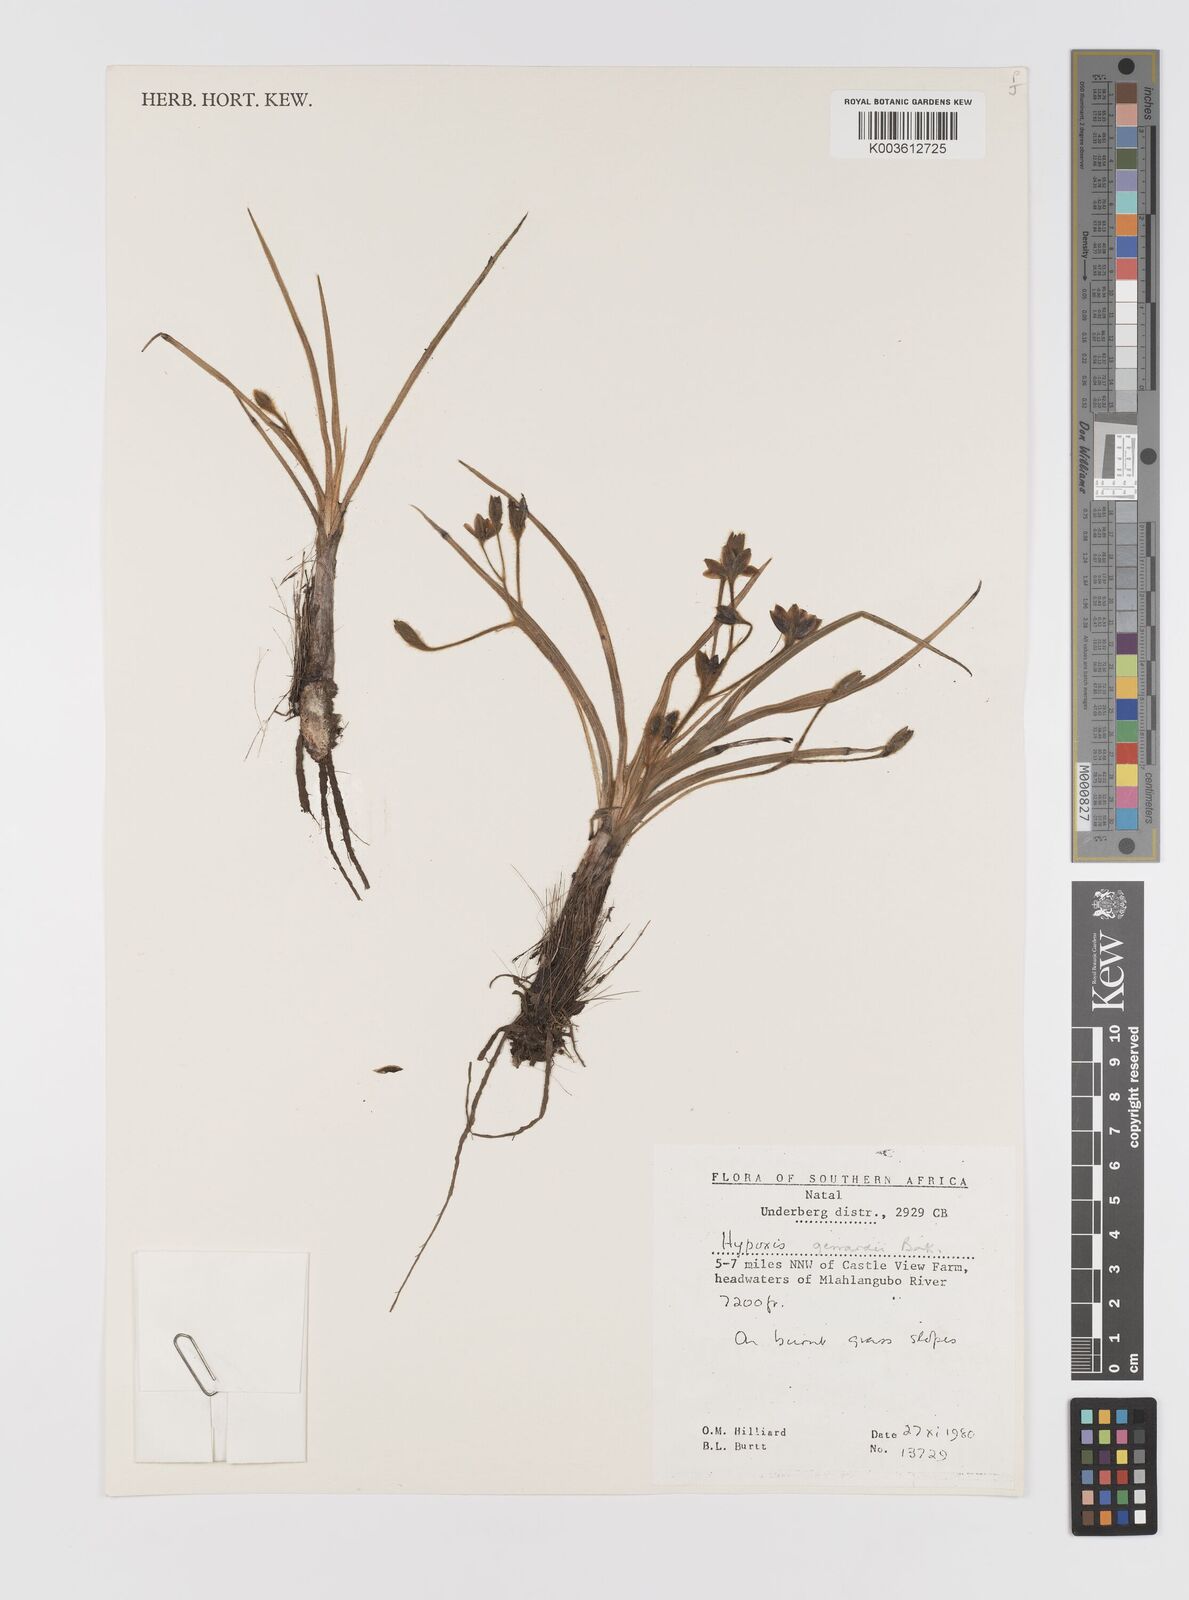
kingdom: Plantae
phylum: Tracheophyta
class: Liliopsida
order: Asparagales
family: Hypoxidaceae
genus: Hypoxis
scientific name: Hypoxis gerrardii
